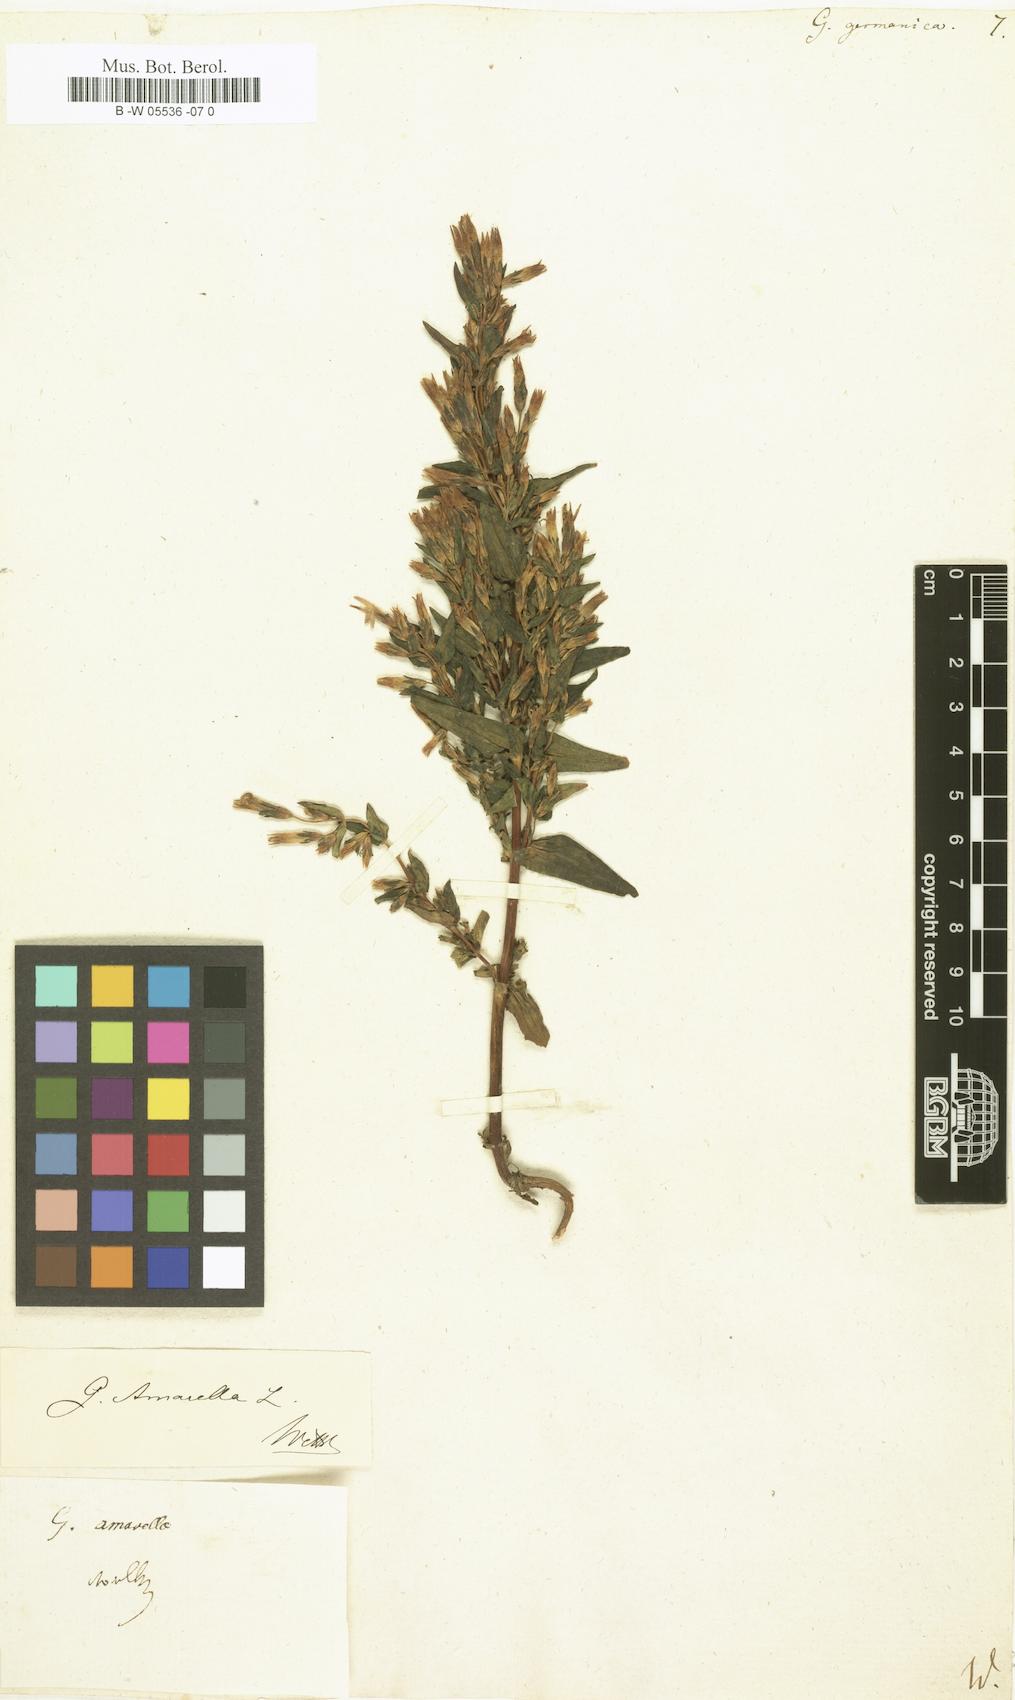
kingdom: Plantae
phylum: Tracheophyta
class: Magnoliopsida
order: Gentianales
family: Gentianaceae
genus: Gentianella
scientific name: Gentianella
